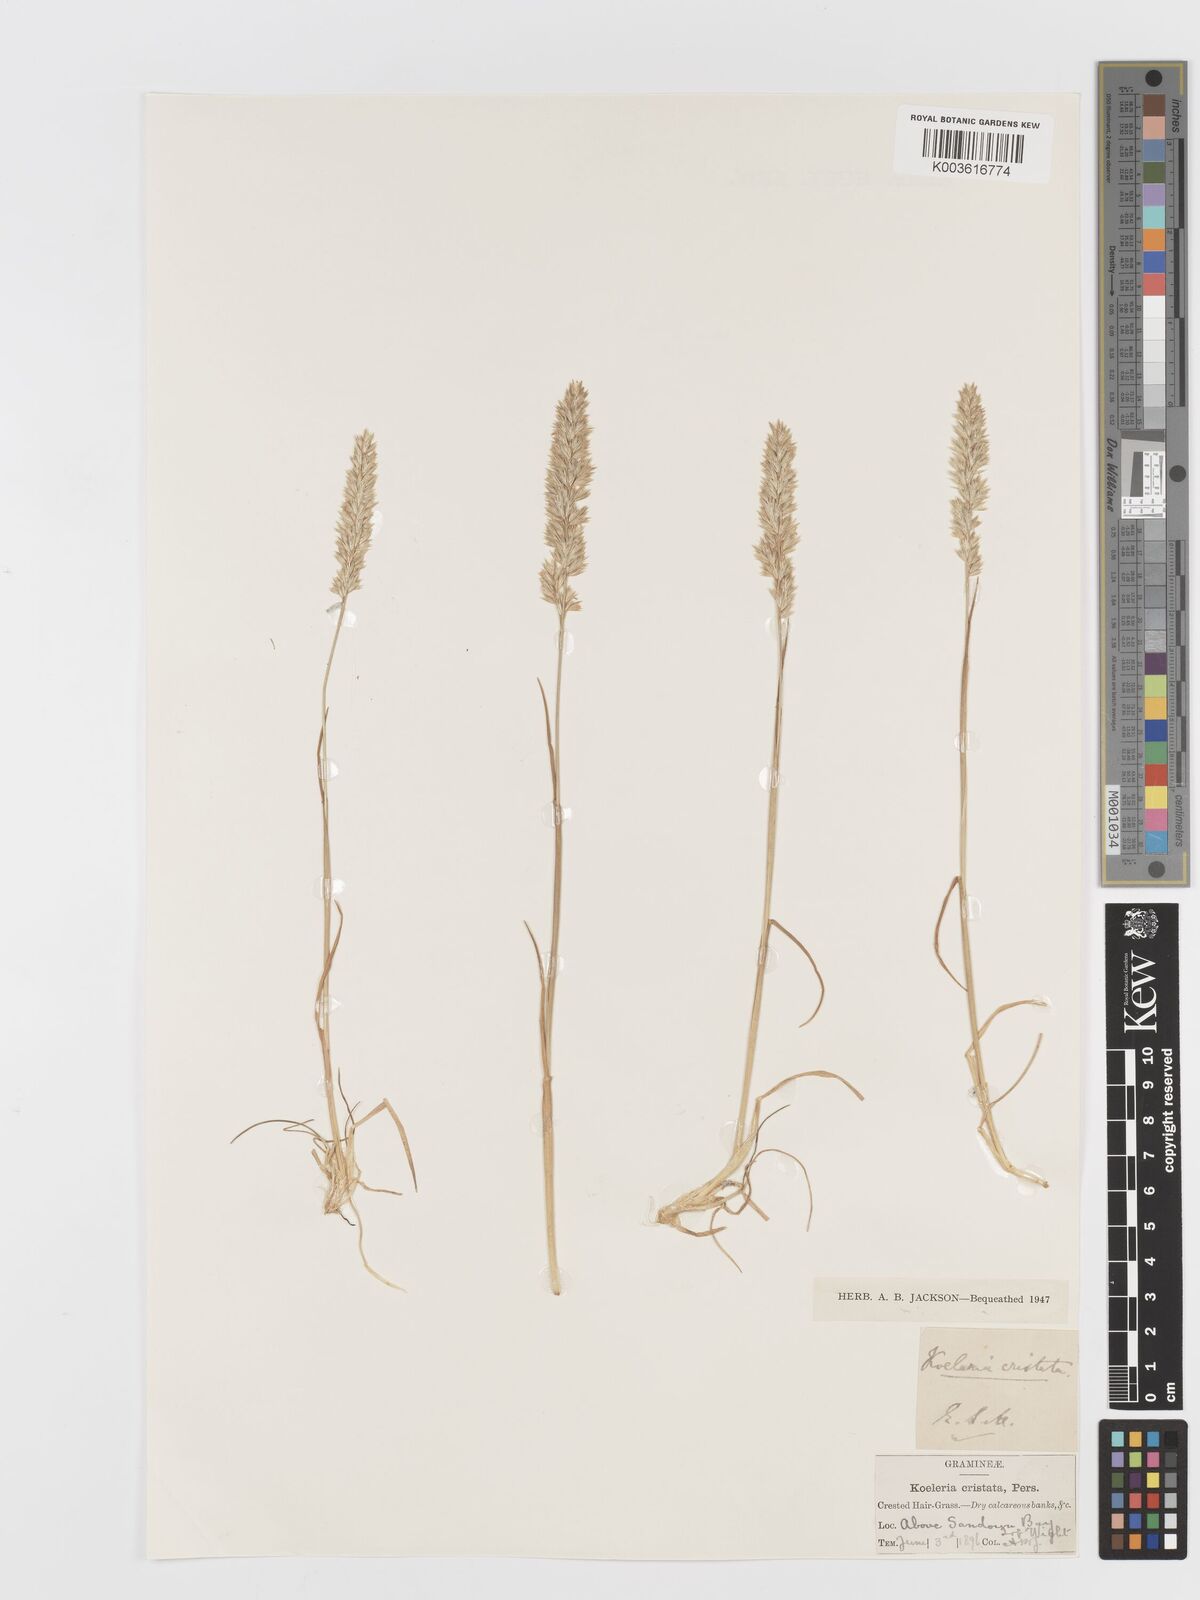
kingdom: Plantae
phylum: Tracheophyta
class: Liliopsida
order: Poales
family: Poaceae
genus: Koeleria
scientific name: Koeleria macrantha
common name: Crested hair-grass
